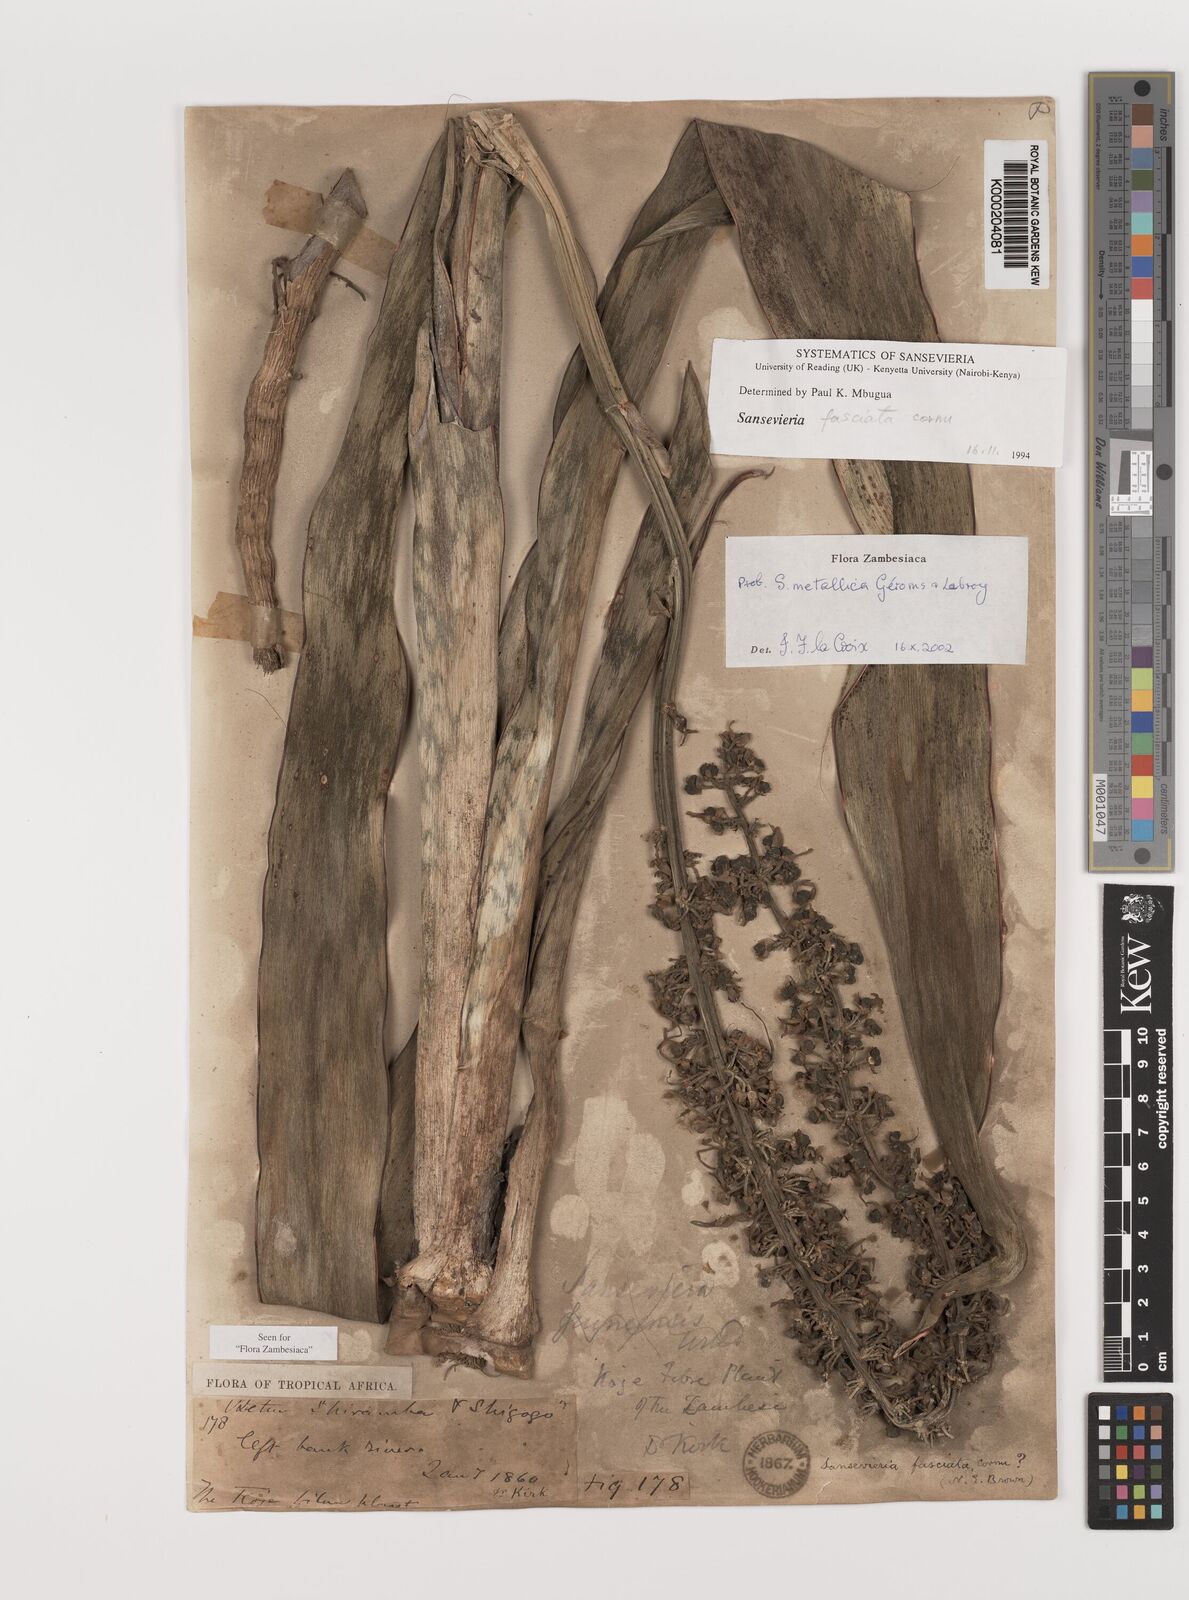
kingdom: Plantae
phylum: Tracheophyta
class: Liliopsida
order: Asparagales
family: Asparagaceae
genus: Dracaena
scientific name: Dracaena zebra
